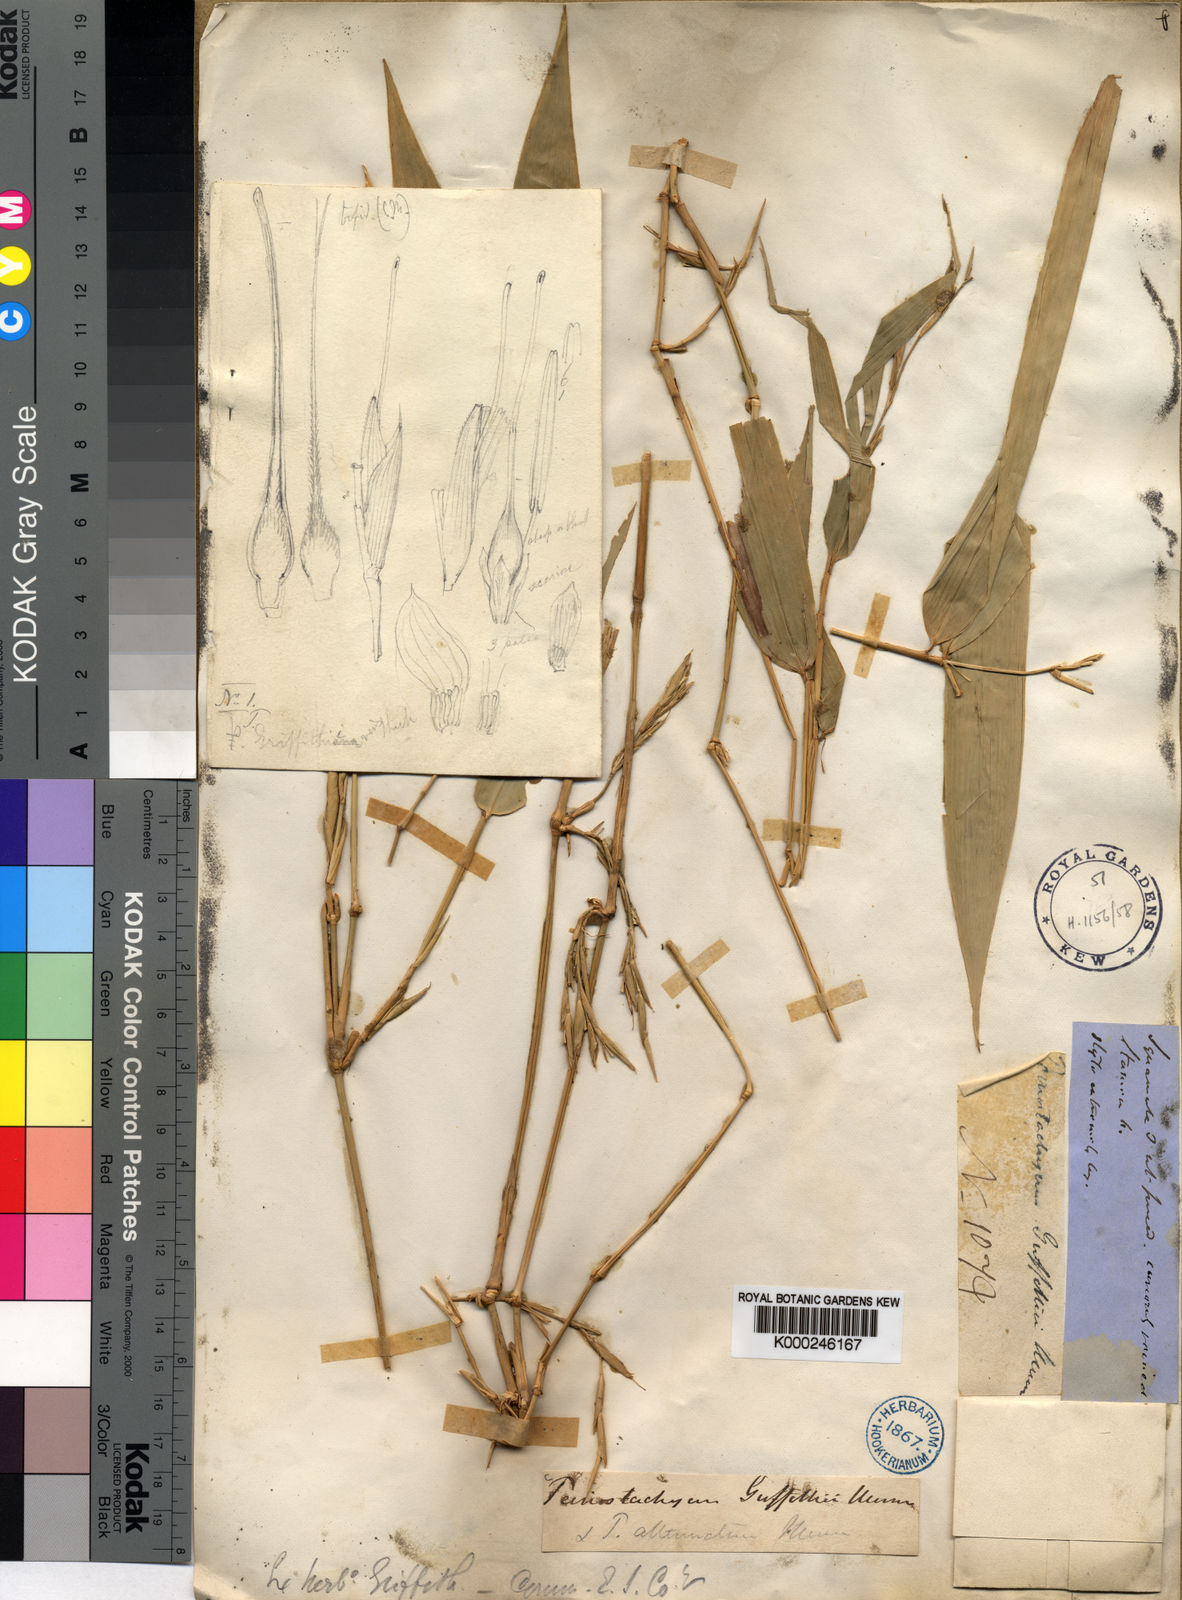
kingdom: Plantae
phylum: Tracheophyta
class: Liliopsida
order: Poales
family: Poaceae
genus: Schizostachyum
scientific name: Schizostachyum griffithii
